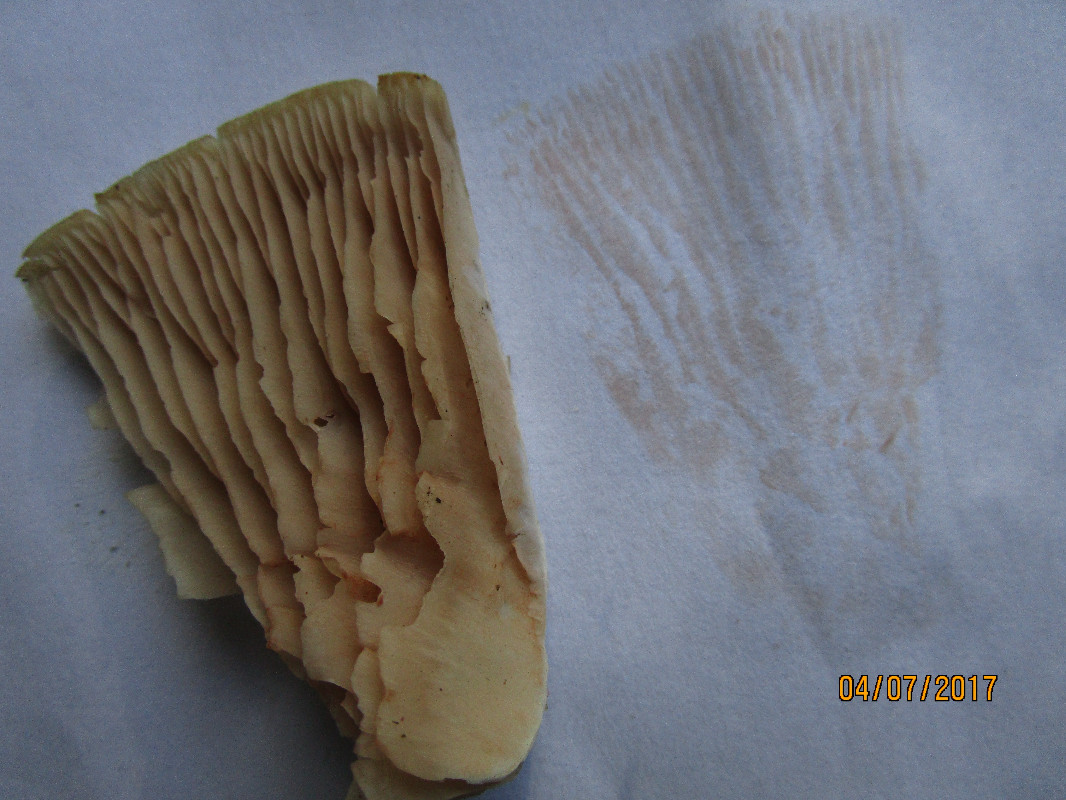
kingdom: Fungi
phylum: Basidiomycota
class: Agaricomycetes
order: Agaricales
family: Entolomataceae
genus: Entoloma
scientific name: Entoloma
